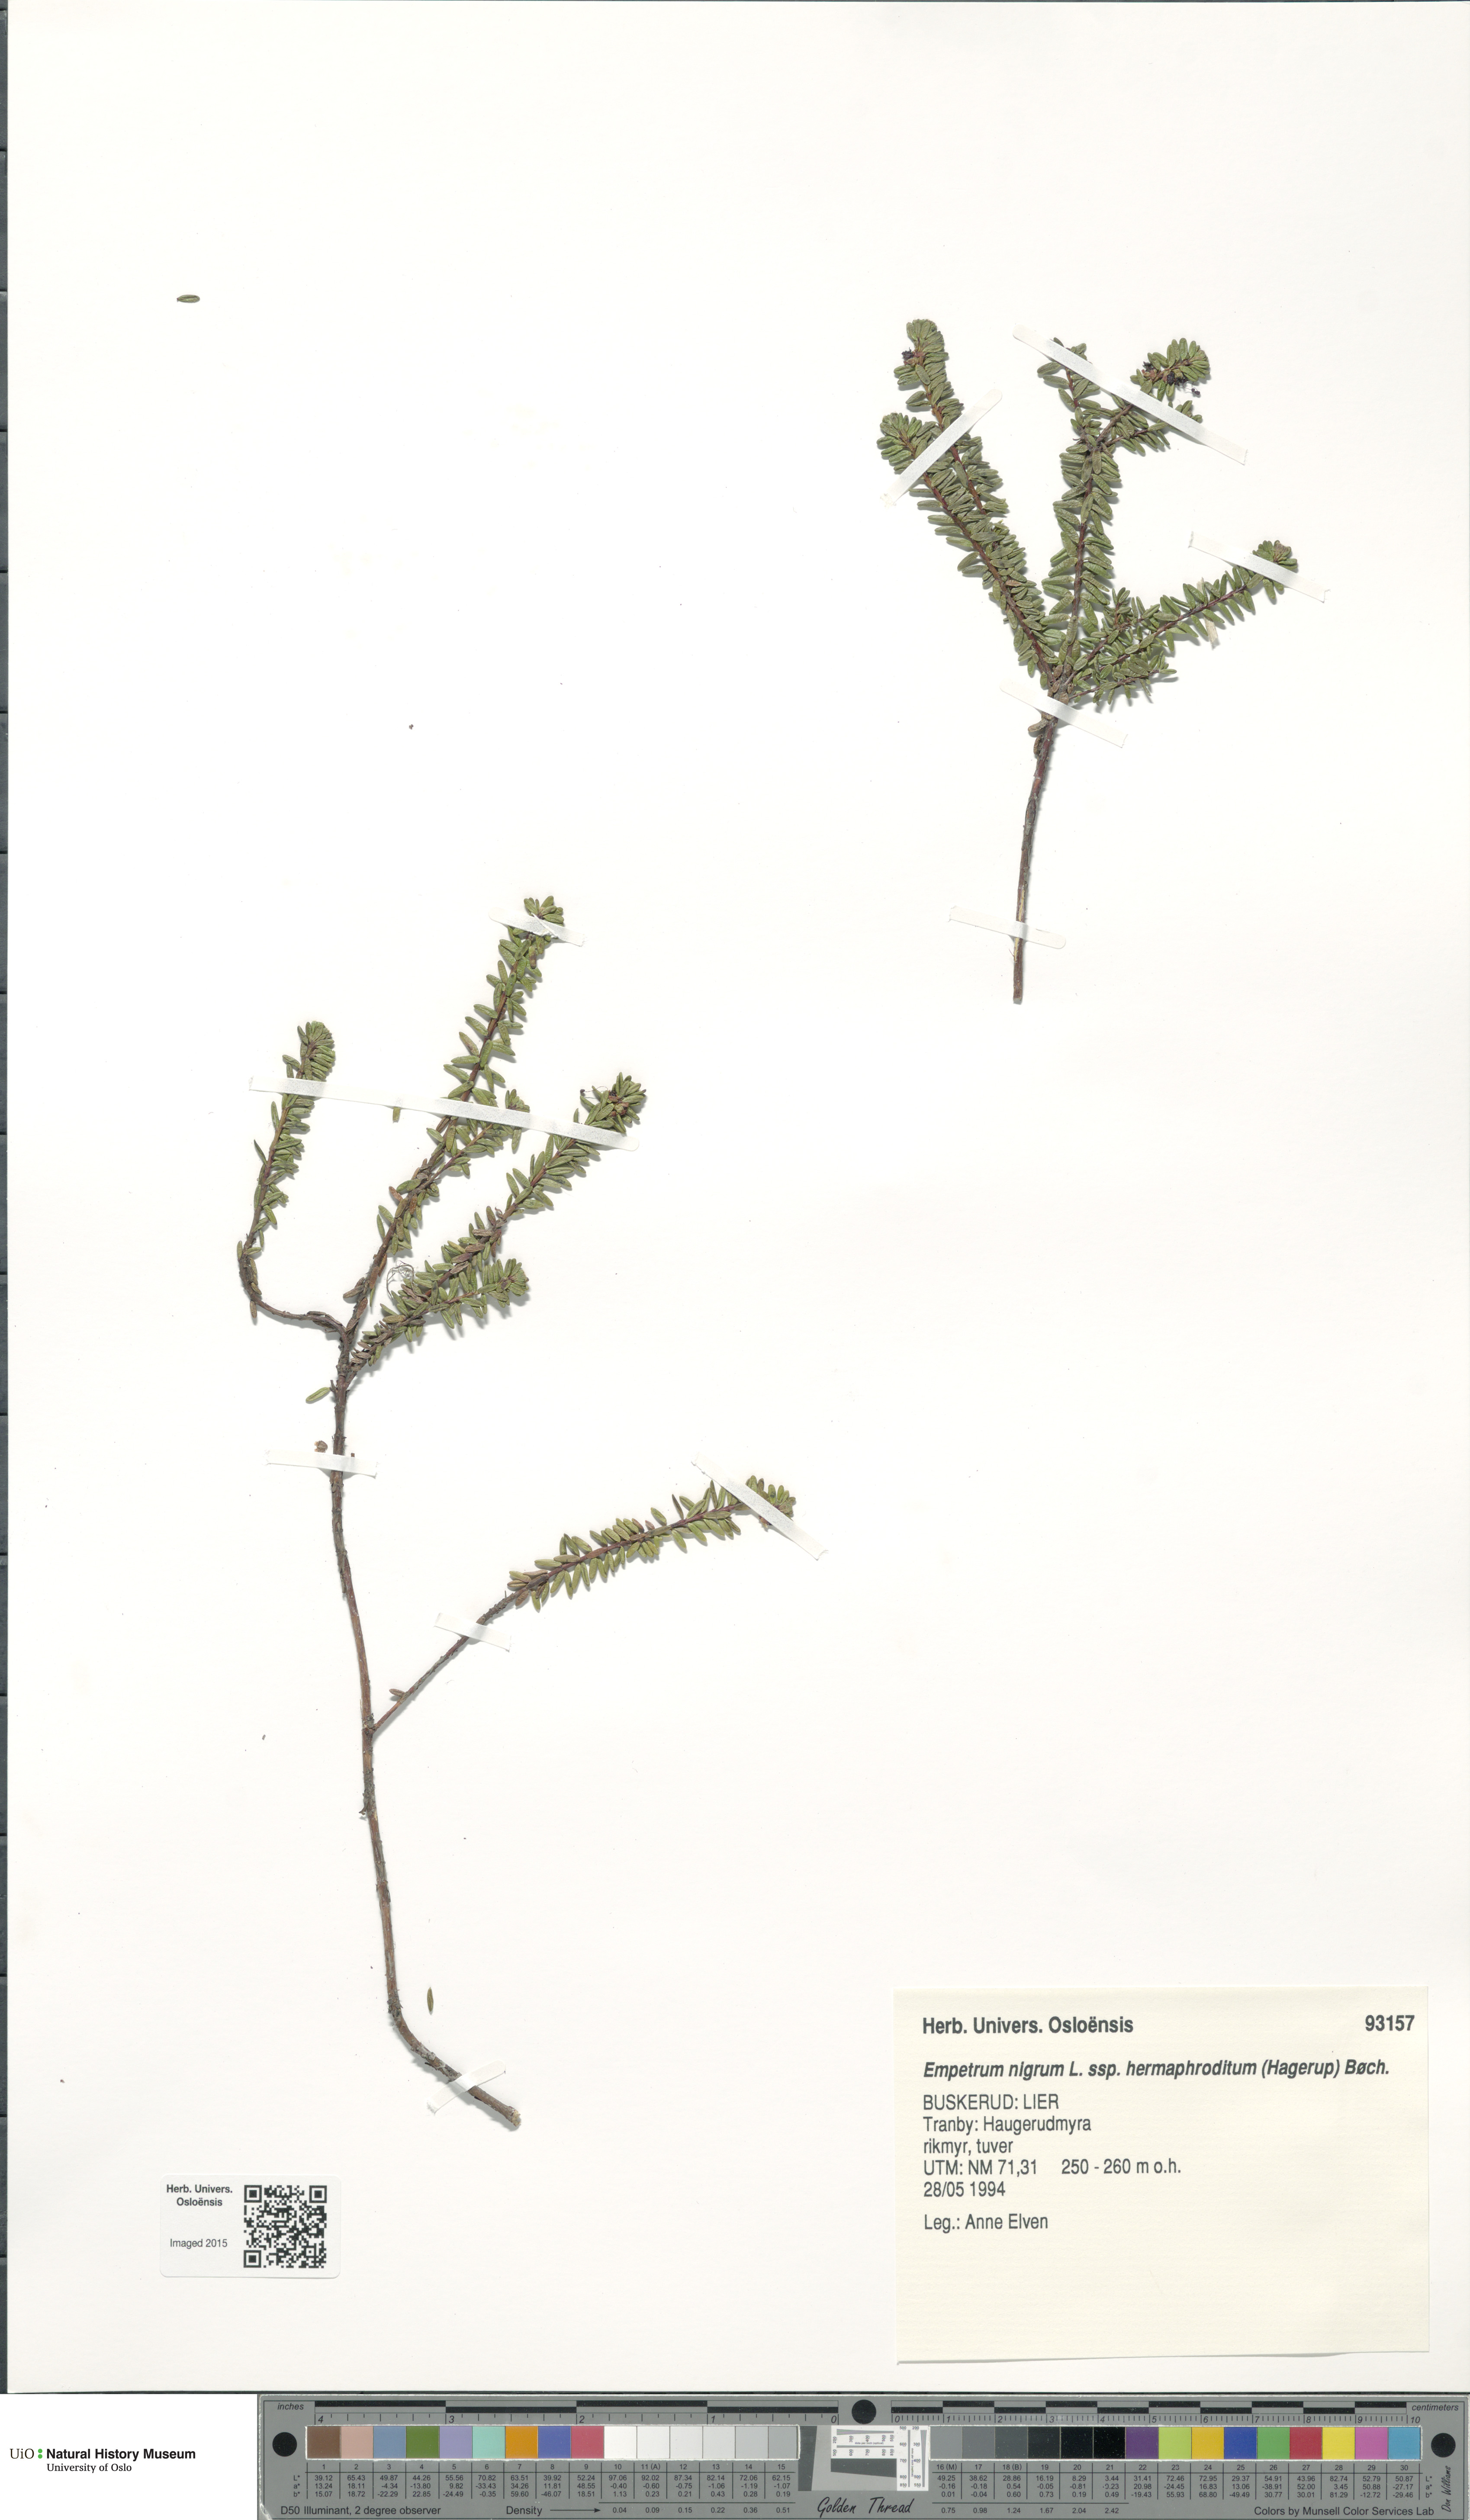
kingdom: Plantae
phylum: Tracheophyta
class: Magnoliopsida
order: Ericales
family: Ericaceae
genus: Empetrum
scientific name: Empetrum hermaphroditum
